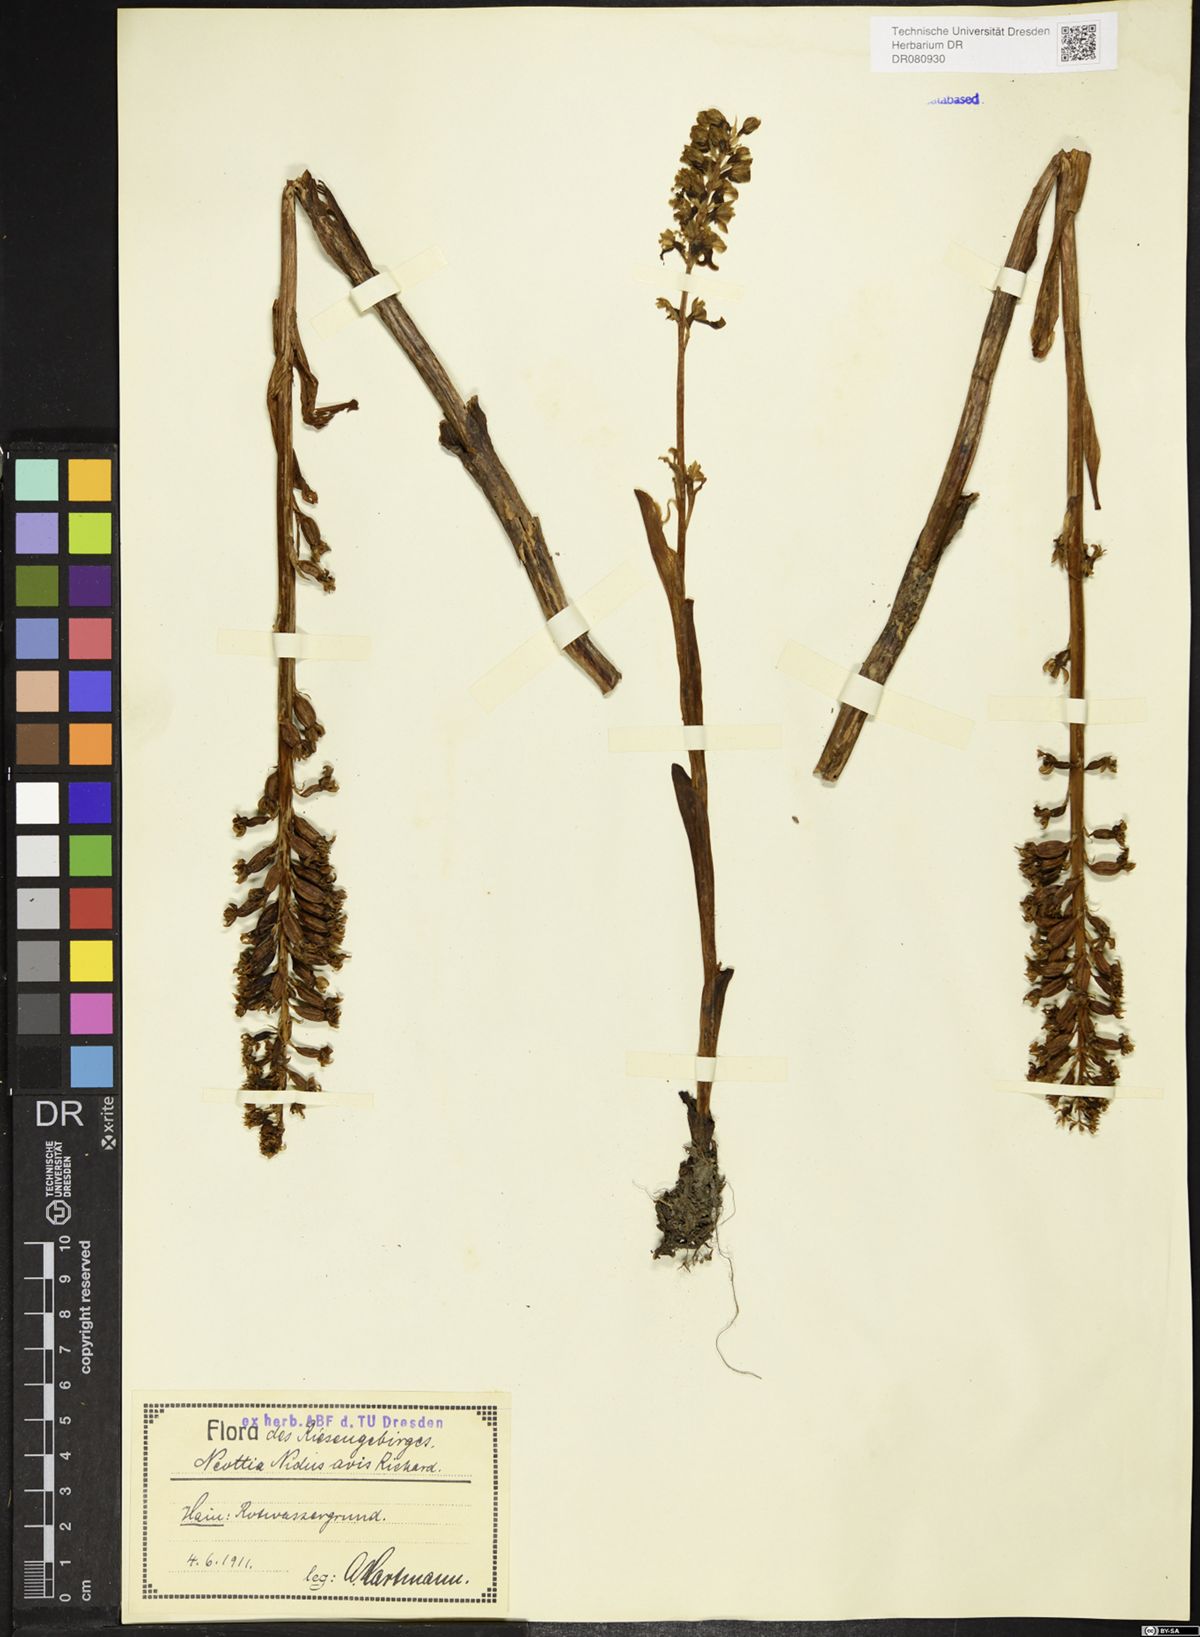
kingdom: Plantae
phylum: Tracheophyta
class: Liliopsida
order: Asparagales
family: Orchidaceae
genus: Neottia
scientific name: Neottia nidus-avis
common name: Bird's-nest orchid
